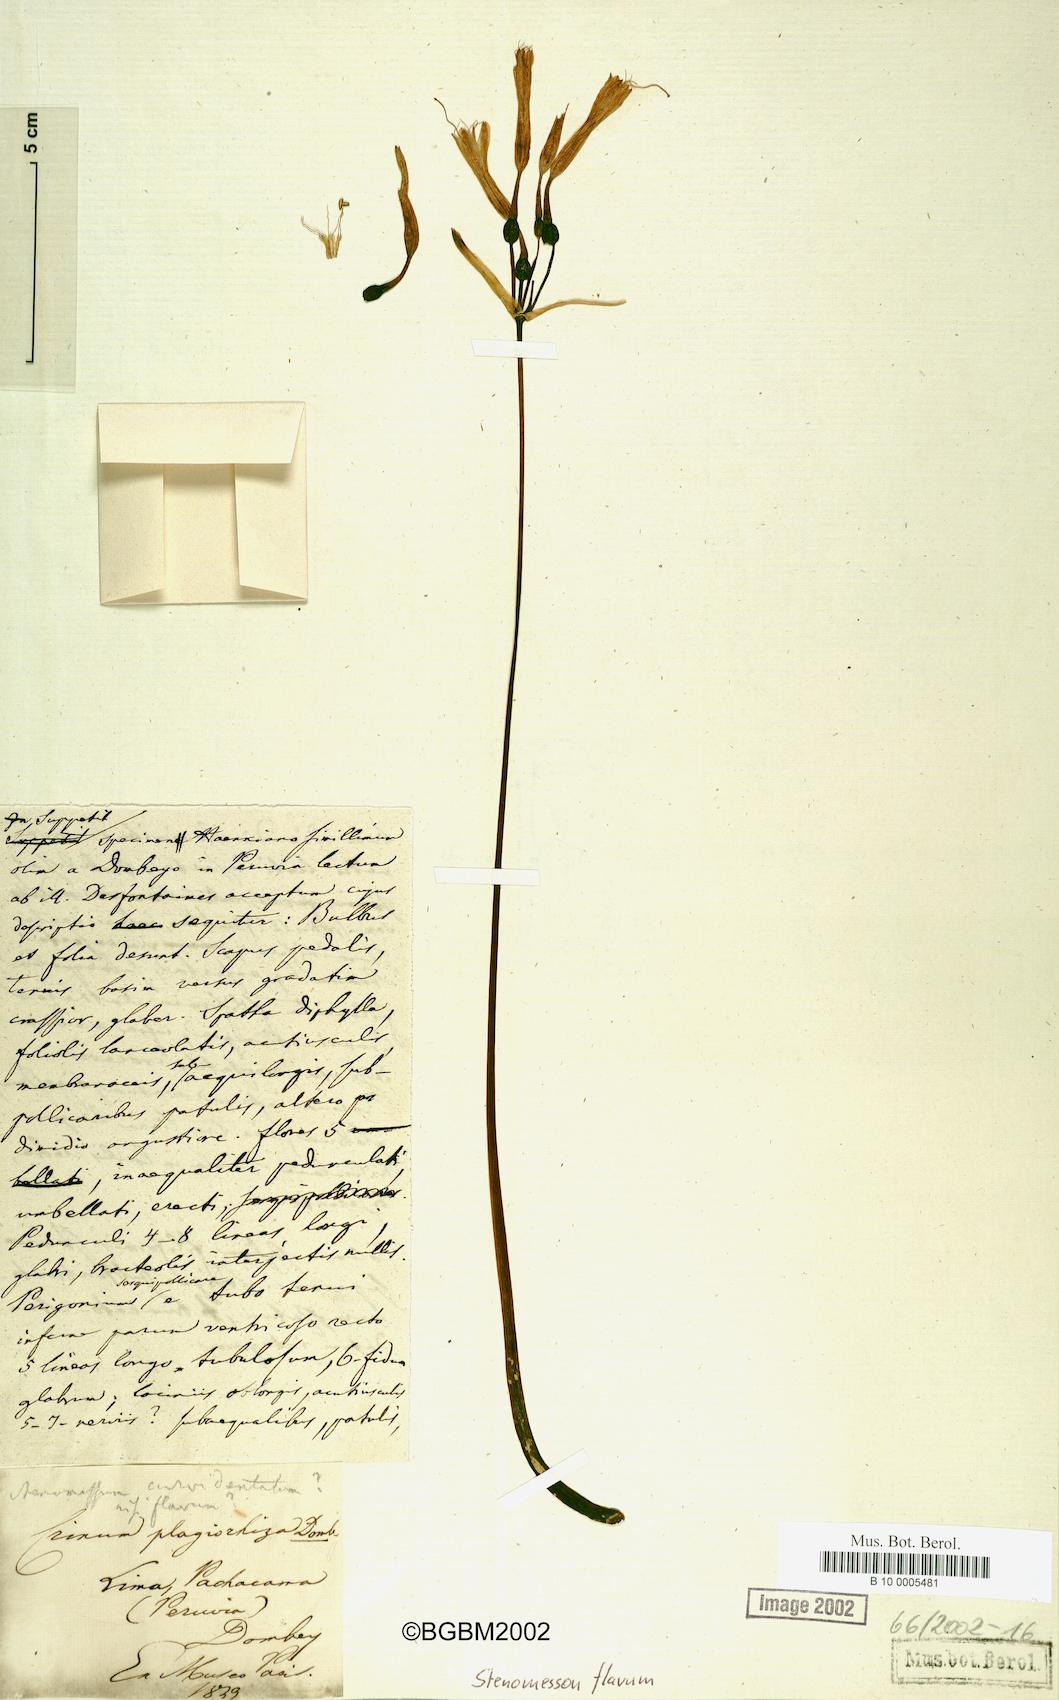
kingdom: Plantae
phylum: Tracheophyta
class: Liliopsida
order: Asparagales
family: Amaryllidaceae
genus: Stenomesson
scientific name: Stenomesson flavum
